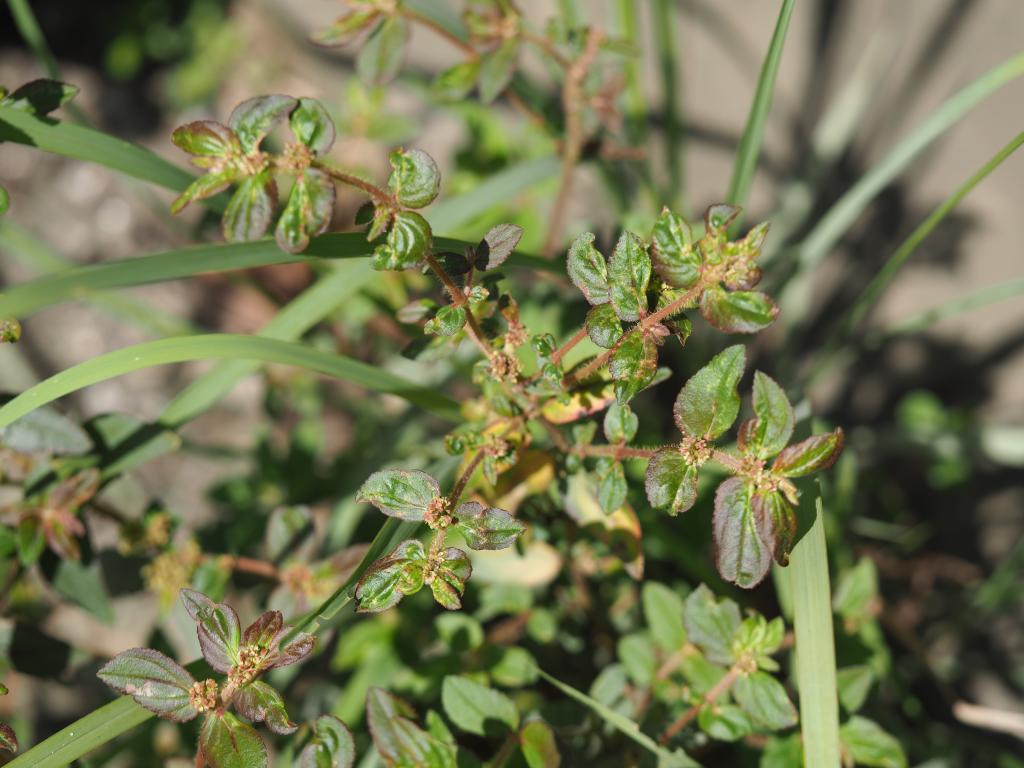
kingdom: Plantae
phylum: Tracheophyta
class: Magnoliopsida
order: Malpighiales
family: Euphorbiaceae
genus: Euphorbia
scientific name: Euphorbia hirta
